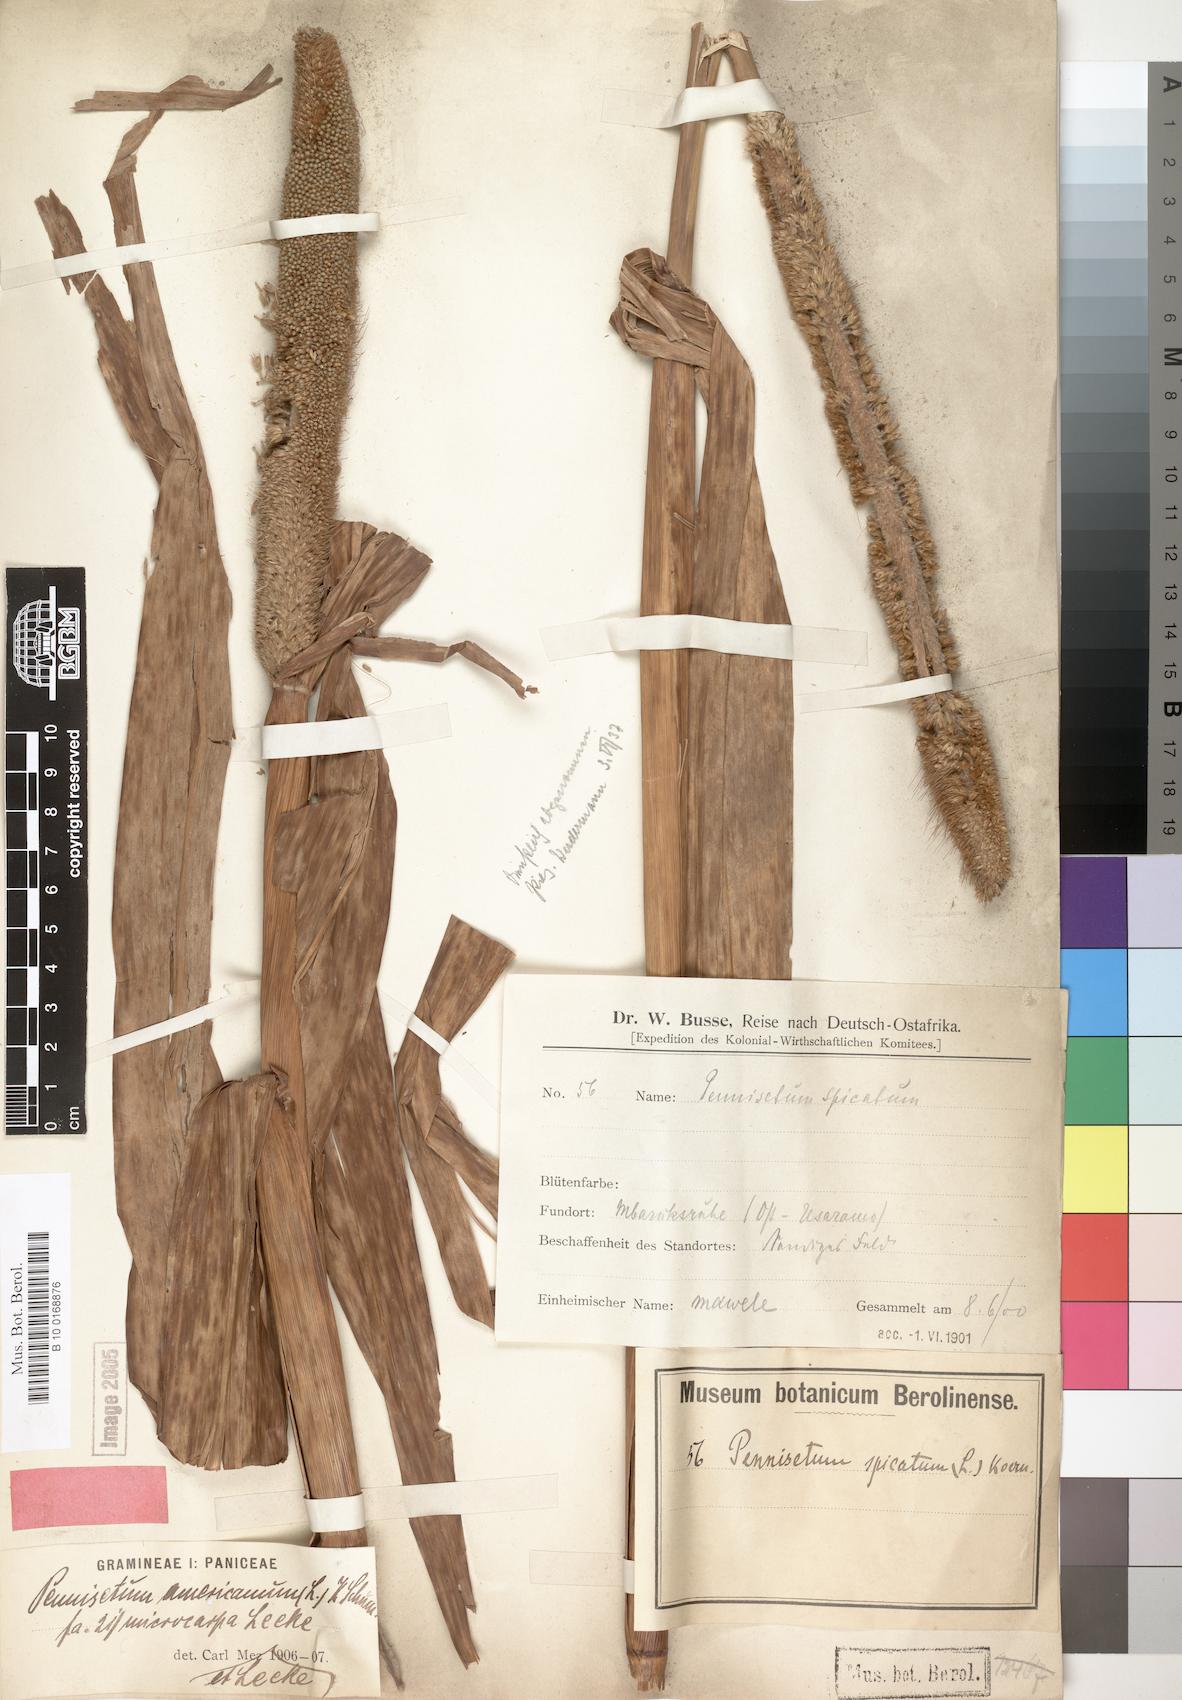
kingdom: Plantae
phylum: Tracheophyta
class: Liliopsida
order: Poales
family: Poaceae
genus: Cenchrus
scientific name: Cenchrus americanus
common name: Pearl millet
